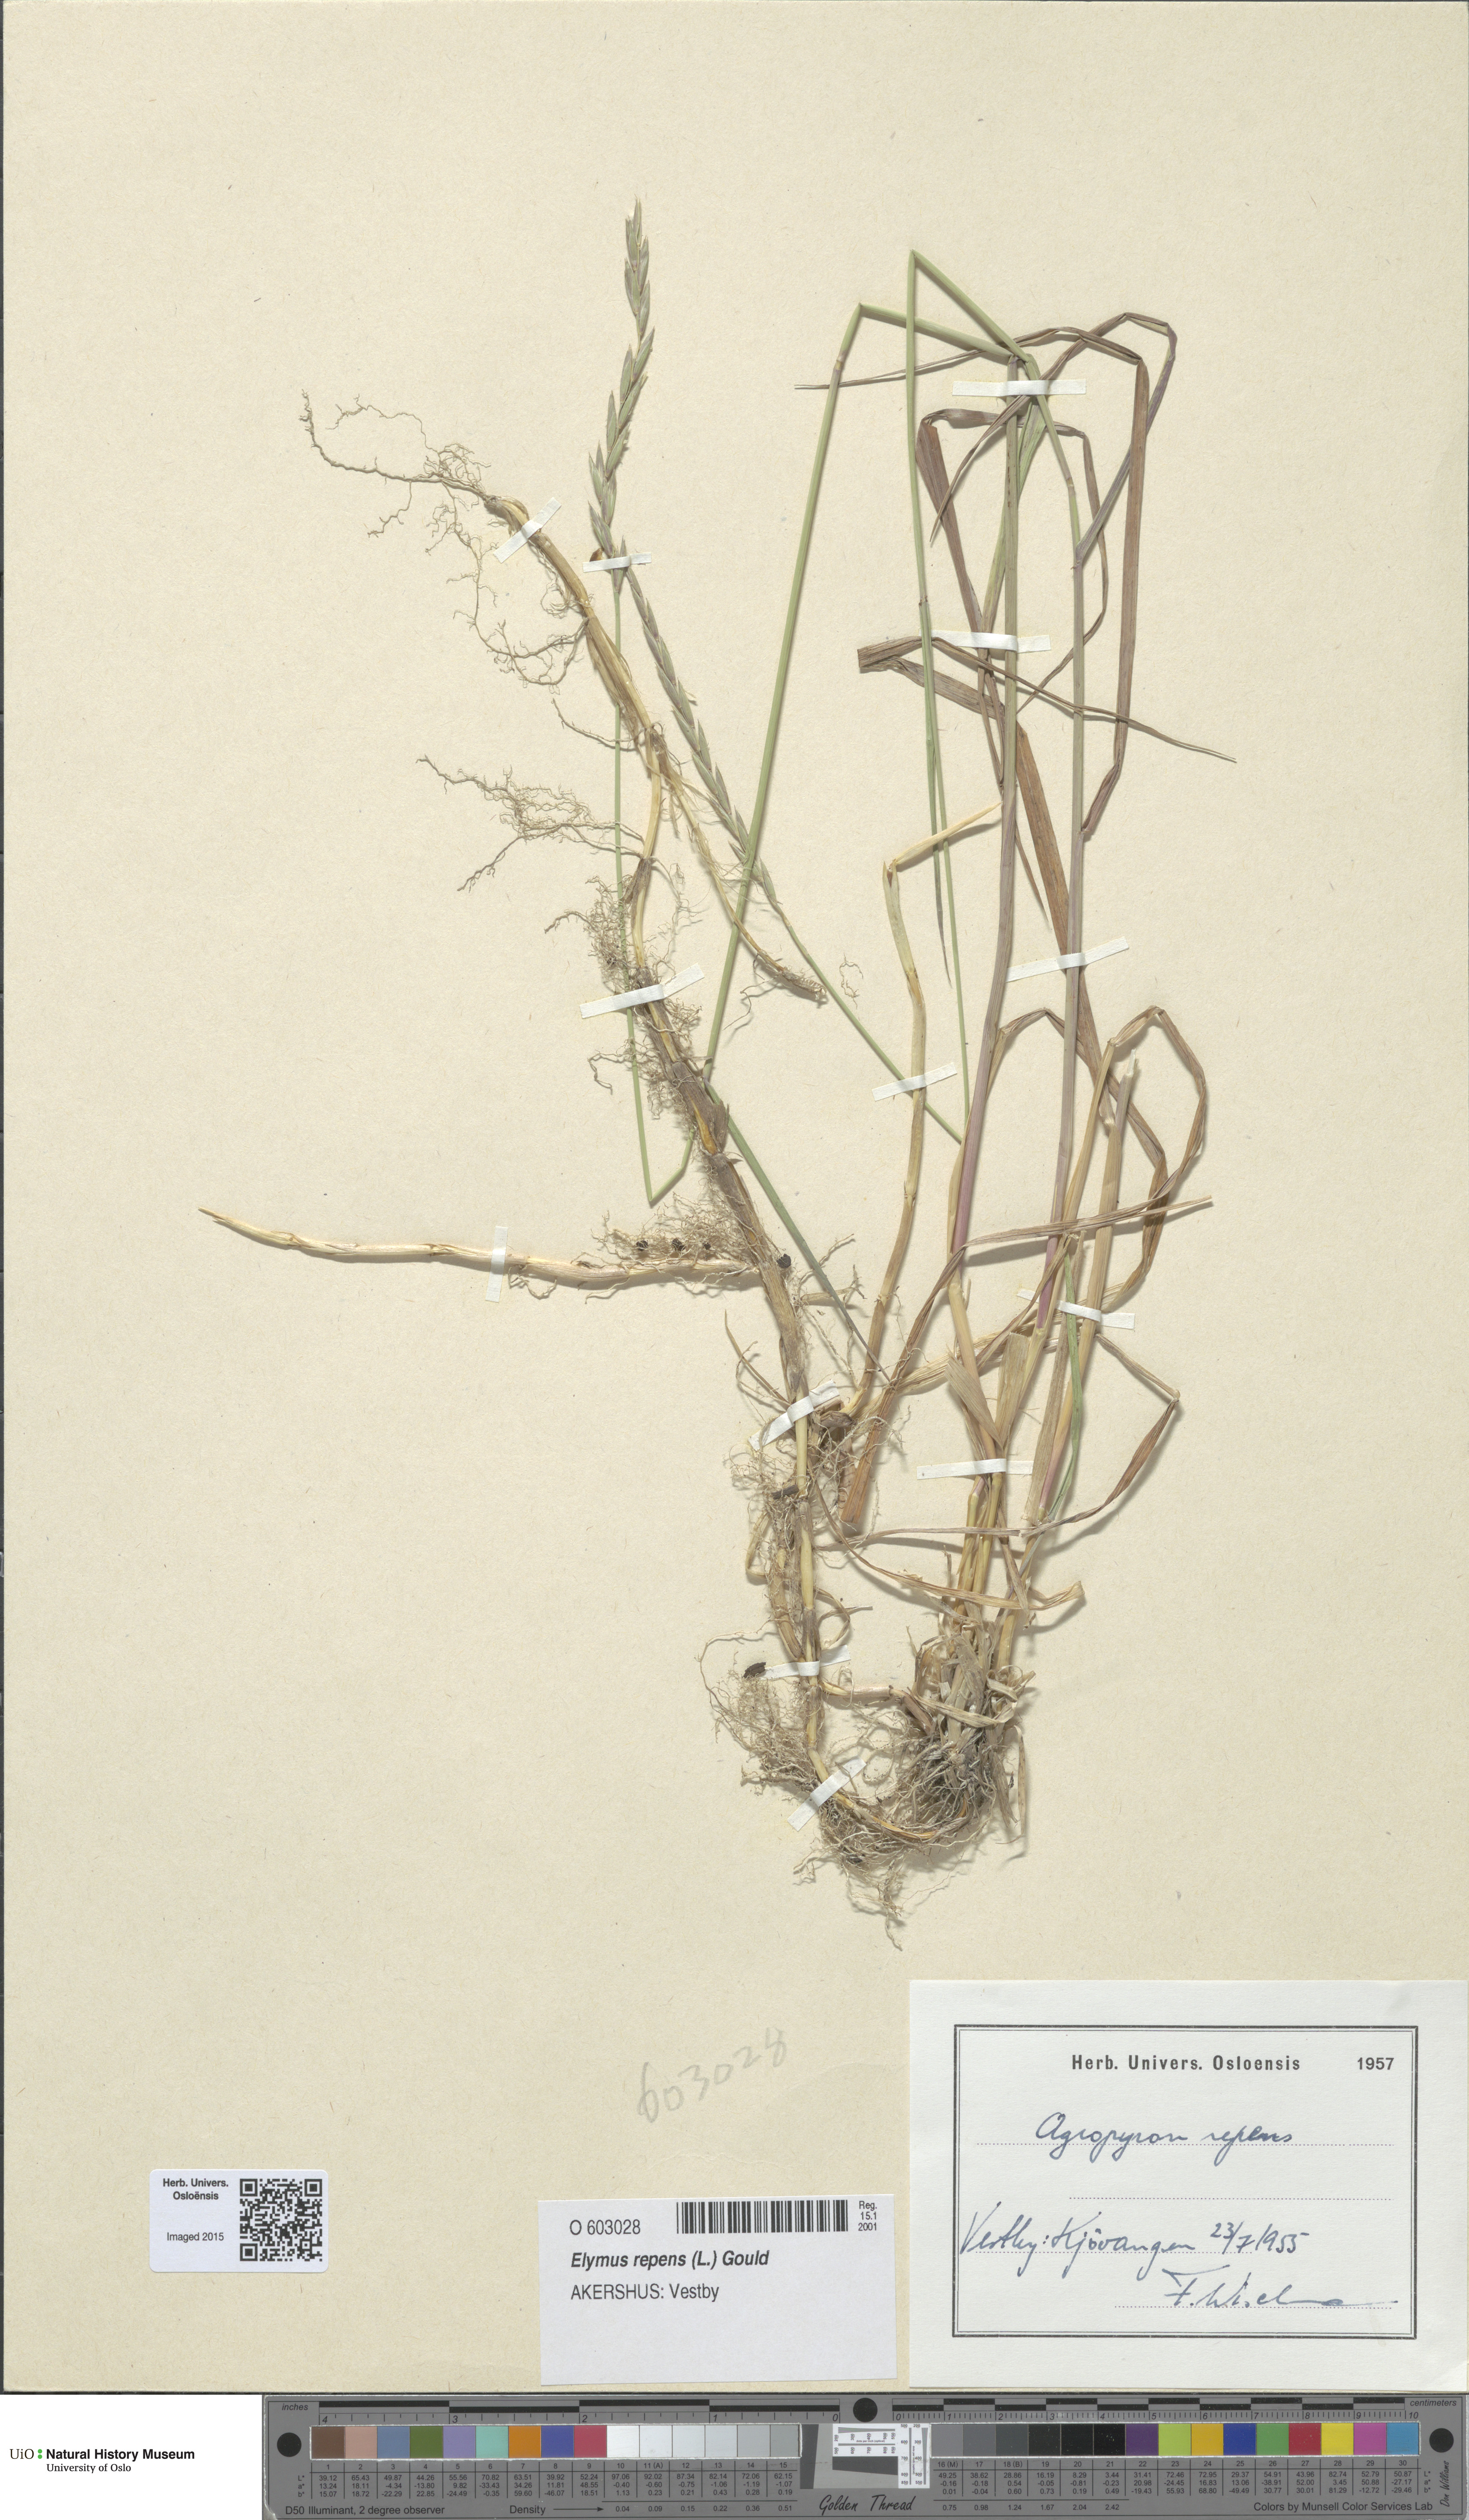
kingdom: Plantae
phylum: Tracheophyta
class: Liliopsida
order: Poales
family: Poaceae
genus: Elymus
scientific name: Elymus repens
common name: Quackgrass
